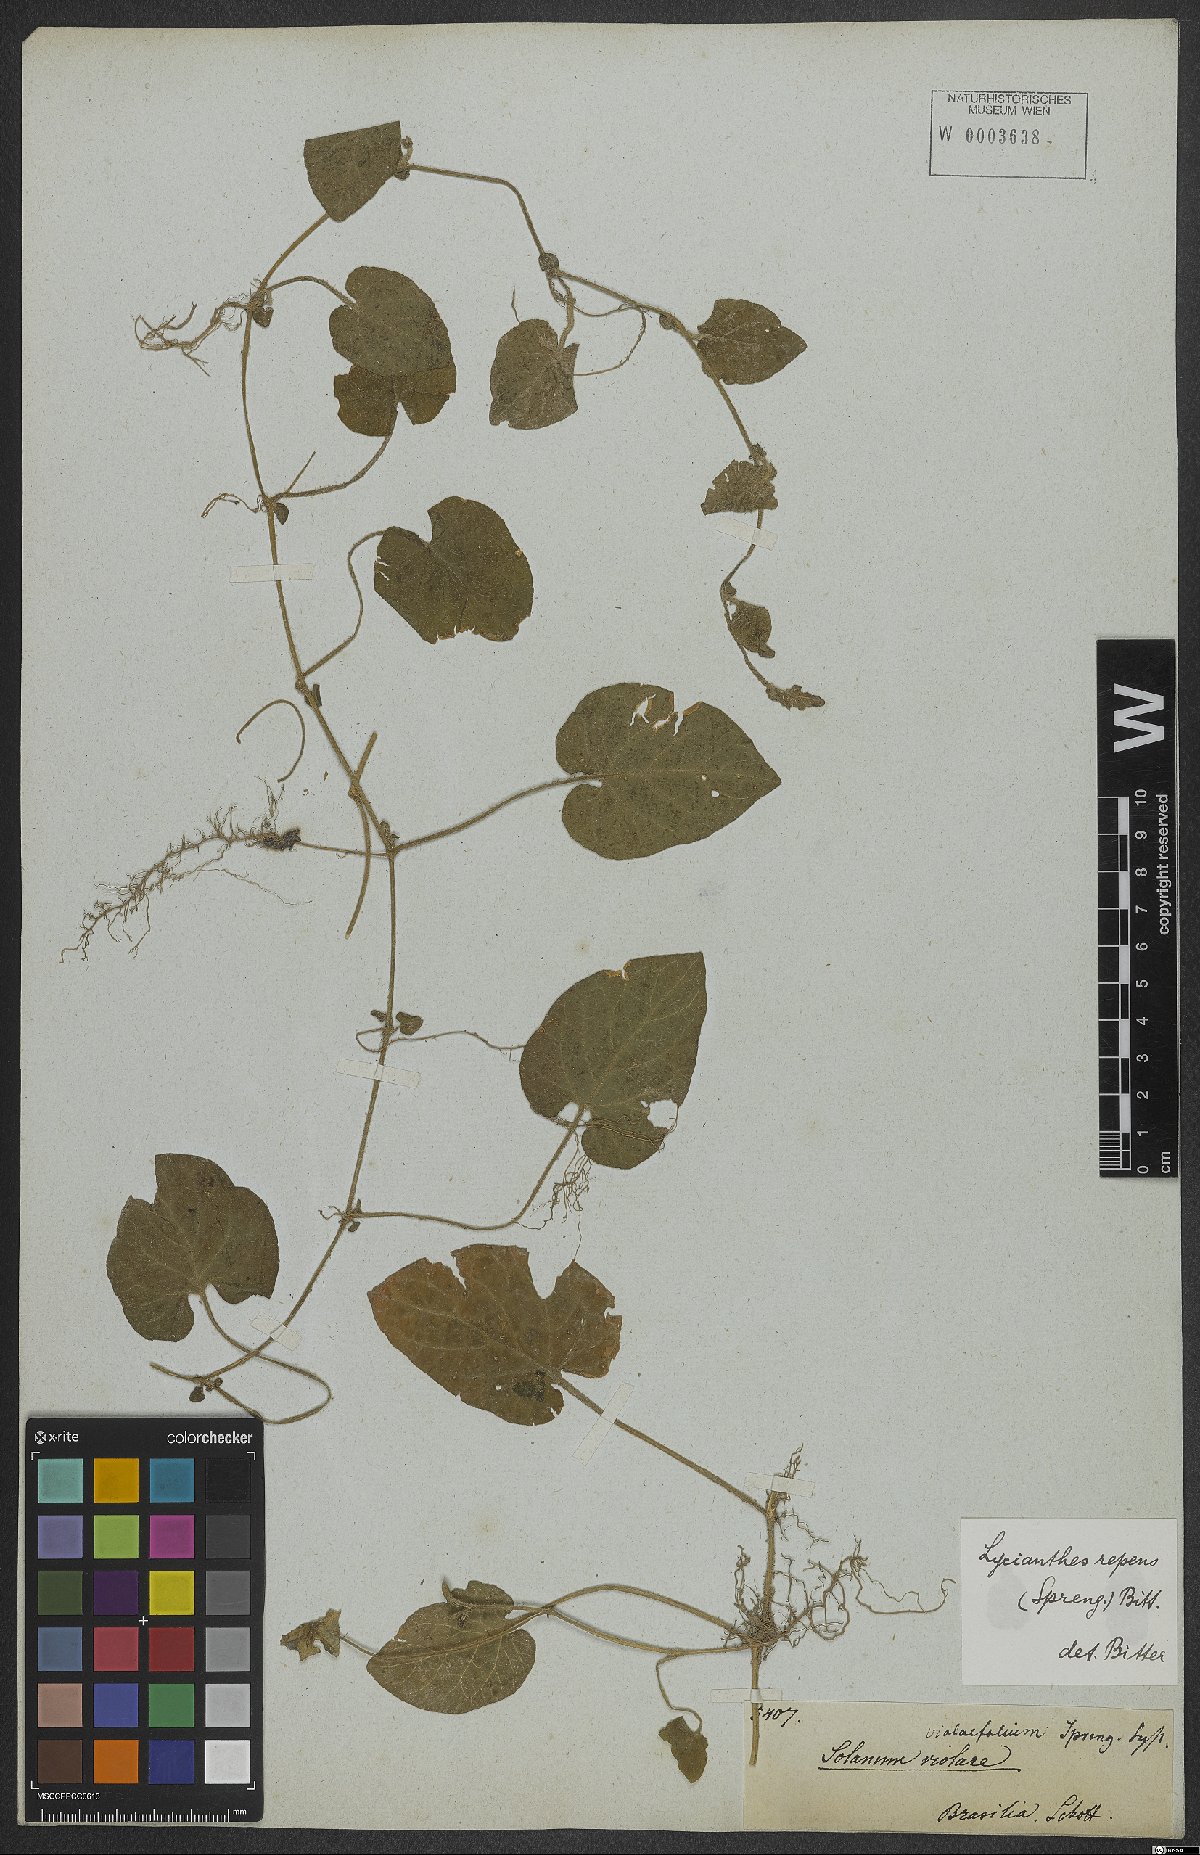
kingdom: Plantae
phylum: Tracheophyta
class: Magnoliopsida
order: Solanales
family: Solanaceae
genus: Lycianthes
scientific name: Lycianthes repens
